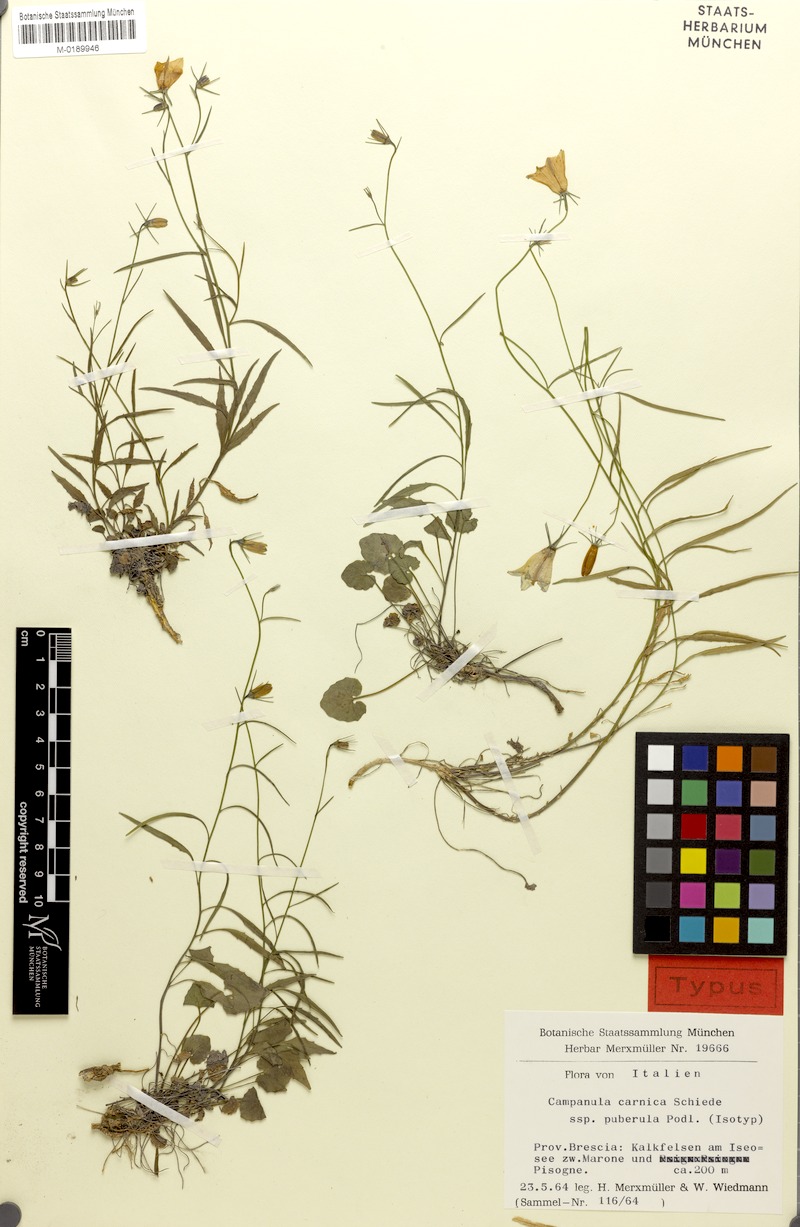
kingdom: Plantae
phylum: Tracheophyta
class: Magnoliopsida
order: Asterales
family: Campanulaceae
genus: Campanula
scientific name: Campanula carnica
